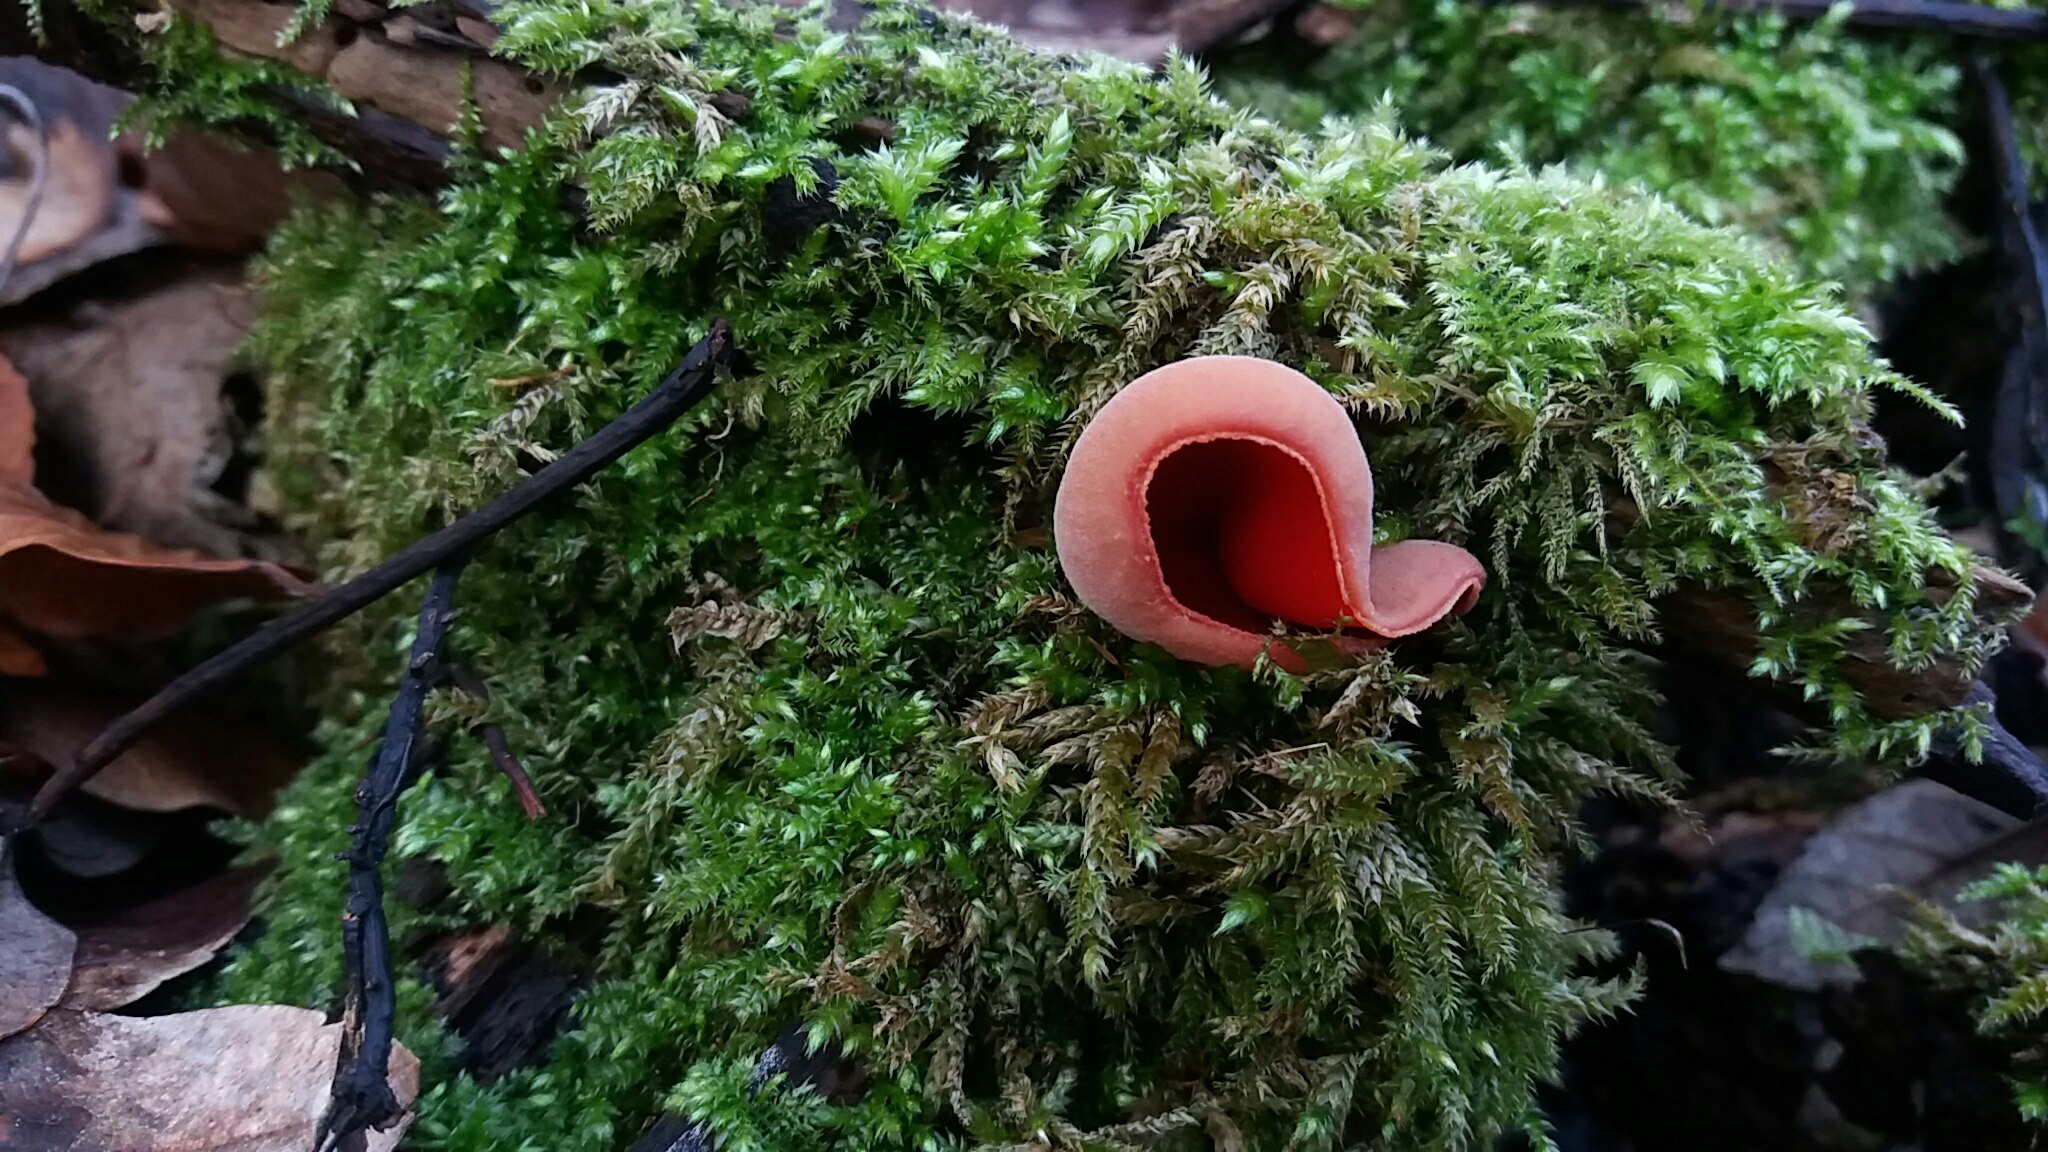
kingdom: Fungi
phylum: Ascomycota
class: Pezizomycetes
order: Pezizales
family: Sarcoscyphaceae
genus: Sarcoscypha
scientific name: Sarcoscypha austriaca
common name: krølhåret pragtbæger
